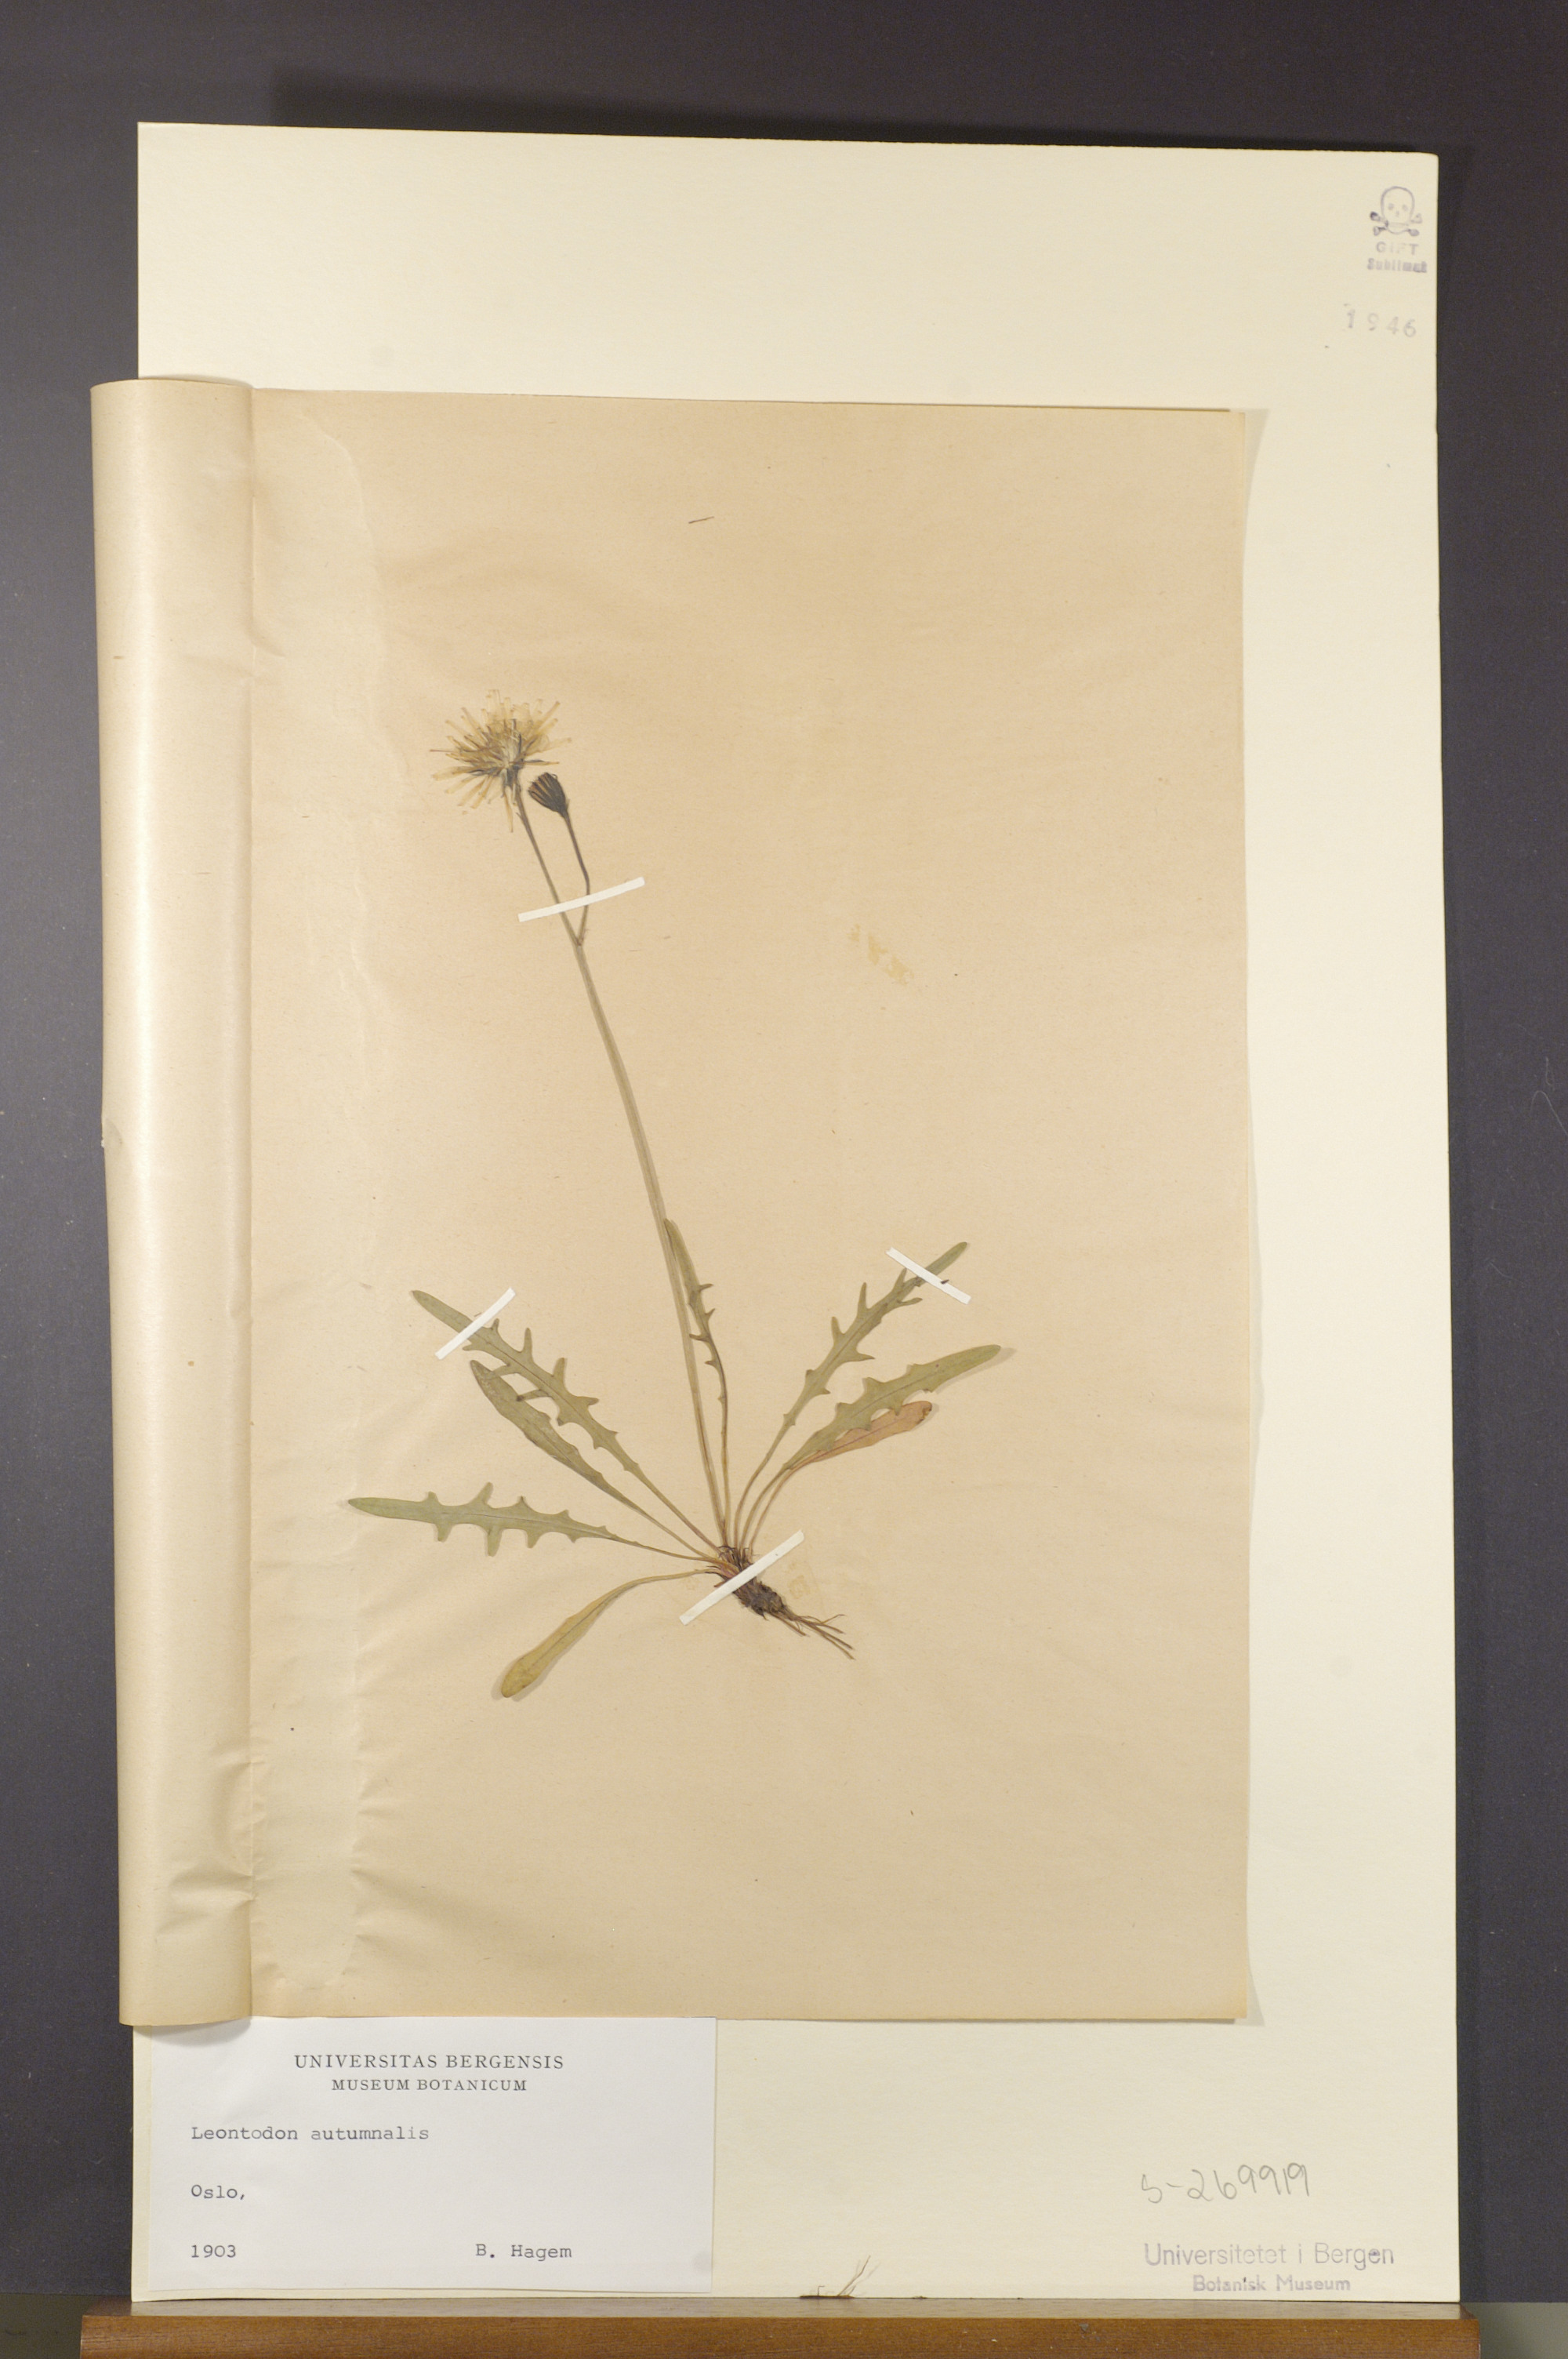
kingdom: Plantae
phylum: Tracheophyta
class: Magnoliopsida
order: Asterales
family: Asteraceae
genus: Scorzoneroides
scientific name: Scorzoneroides autumnalis
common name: Autumn hawkbit
